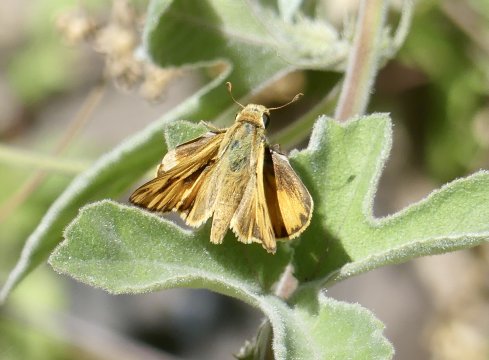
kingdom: Animalia
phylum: Arthropoda
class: Insecta
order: Lepidoptera
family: Hesperiidae
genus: Hylephila
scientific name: Hylephila phyleus
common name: Fiery Skipper
